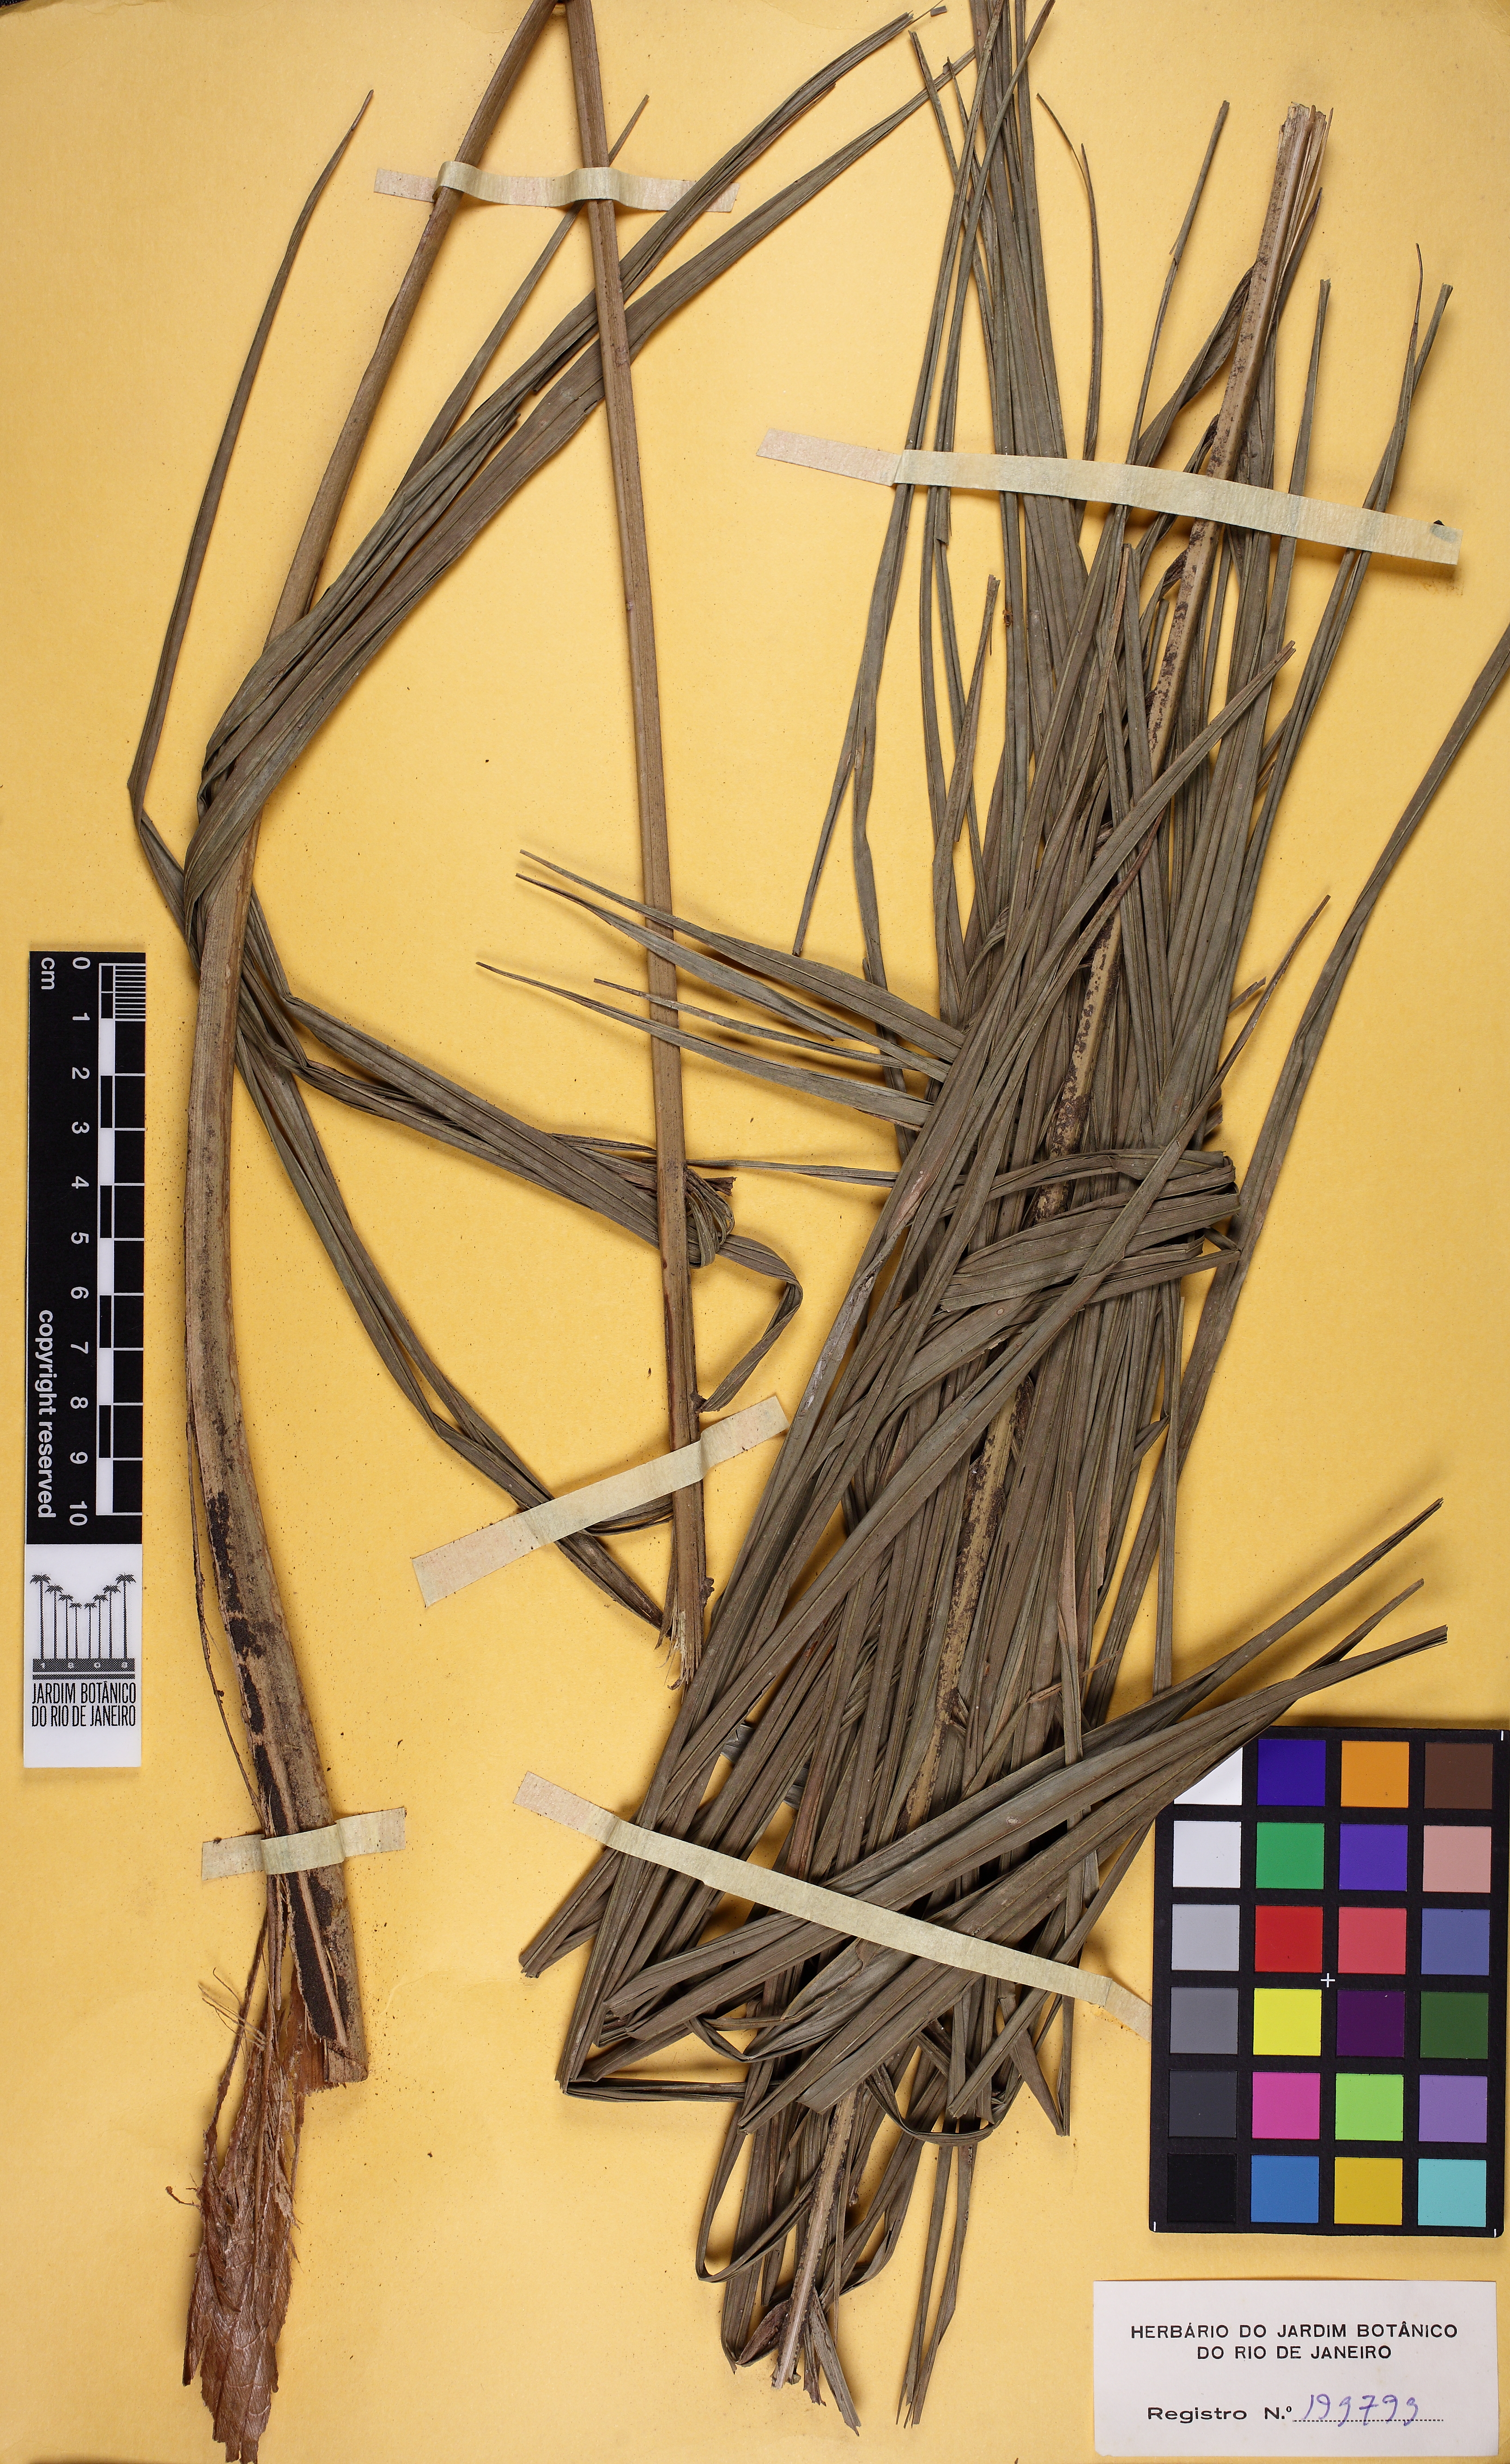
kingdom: Plantae
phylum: Tracheophyta
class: Liliopsida
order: Arecales
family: Arecaceae
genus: Geonoma
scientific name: Geonoma pohliana
